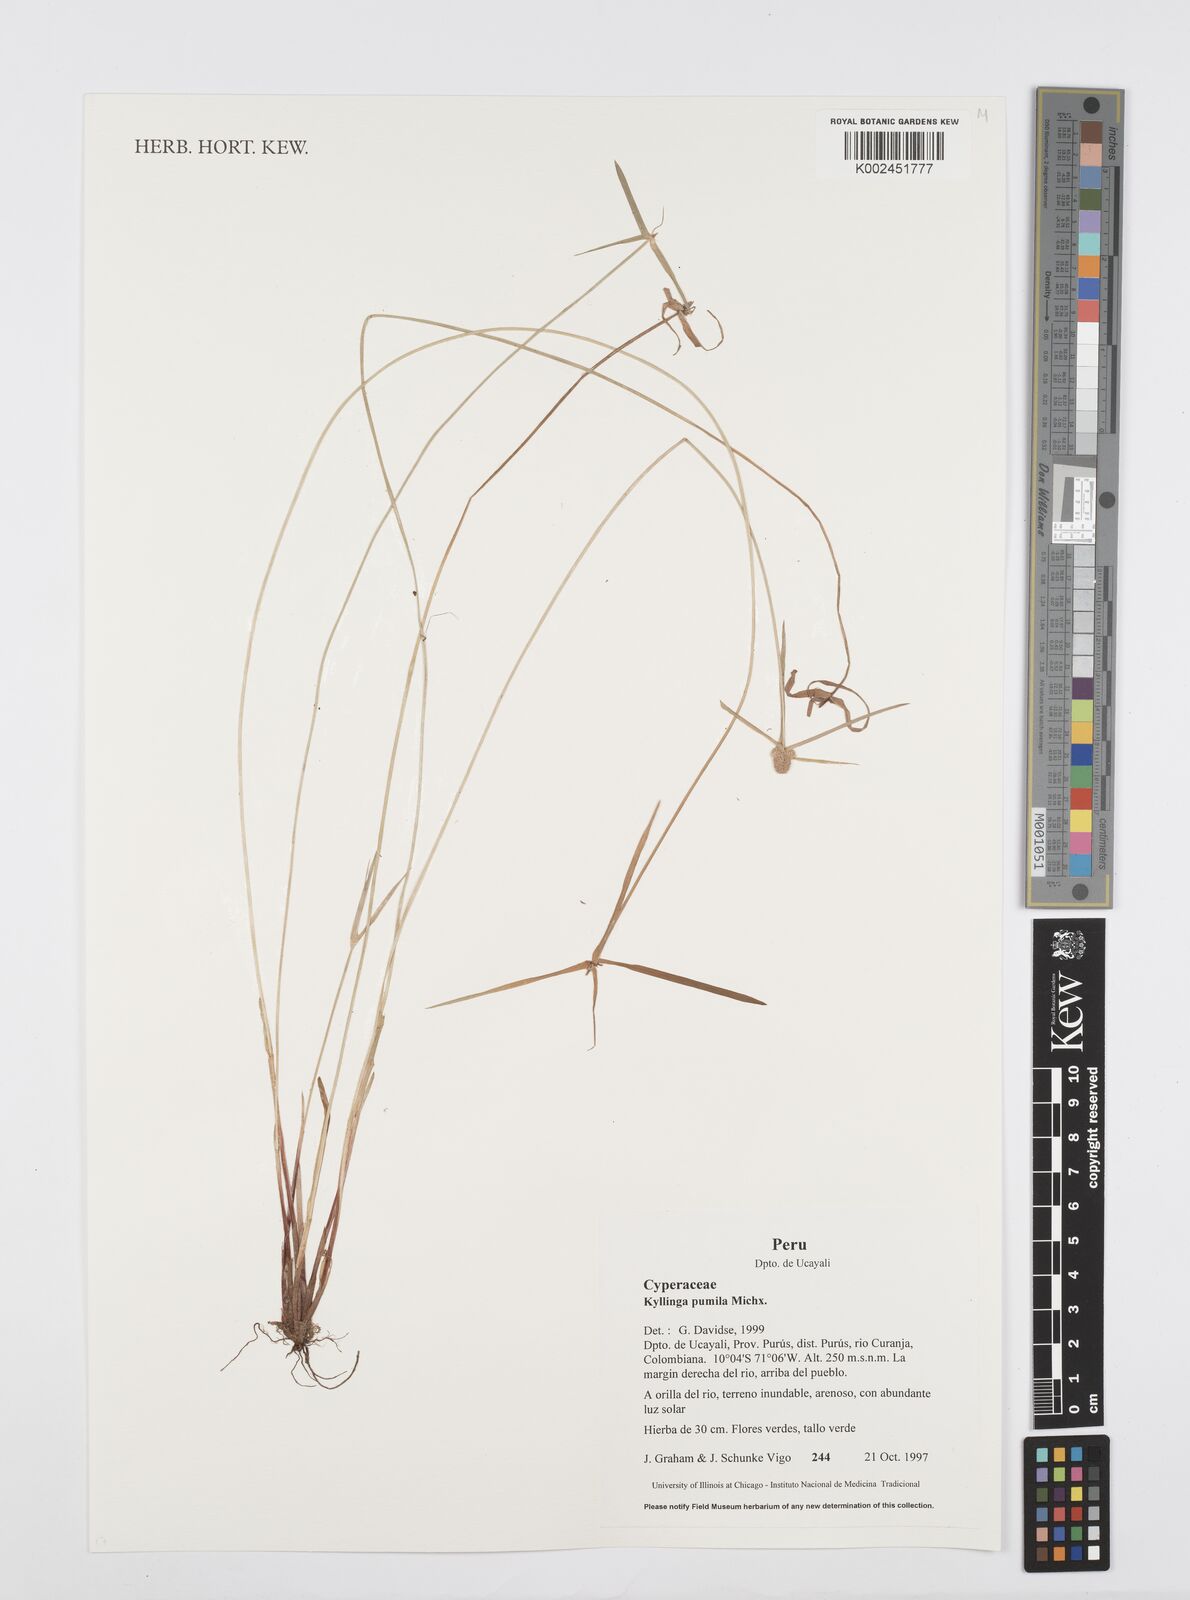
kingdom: Plantae
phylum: Tracheophyta
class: Liliopsida
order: Poales
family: Cyperaceae
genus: Cyperus
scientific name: Cyperus
